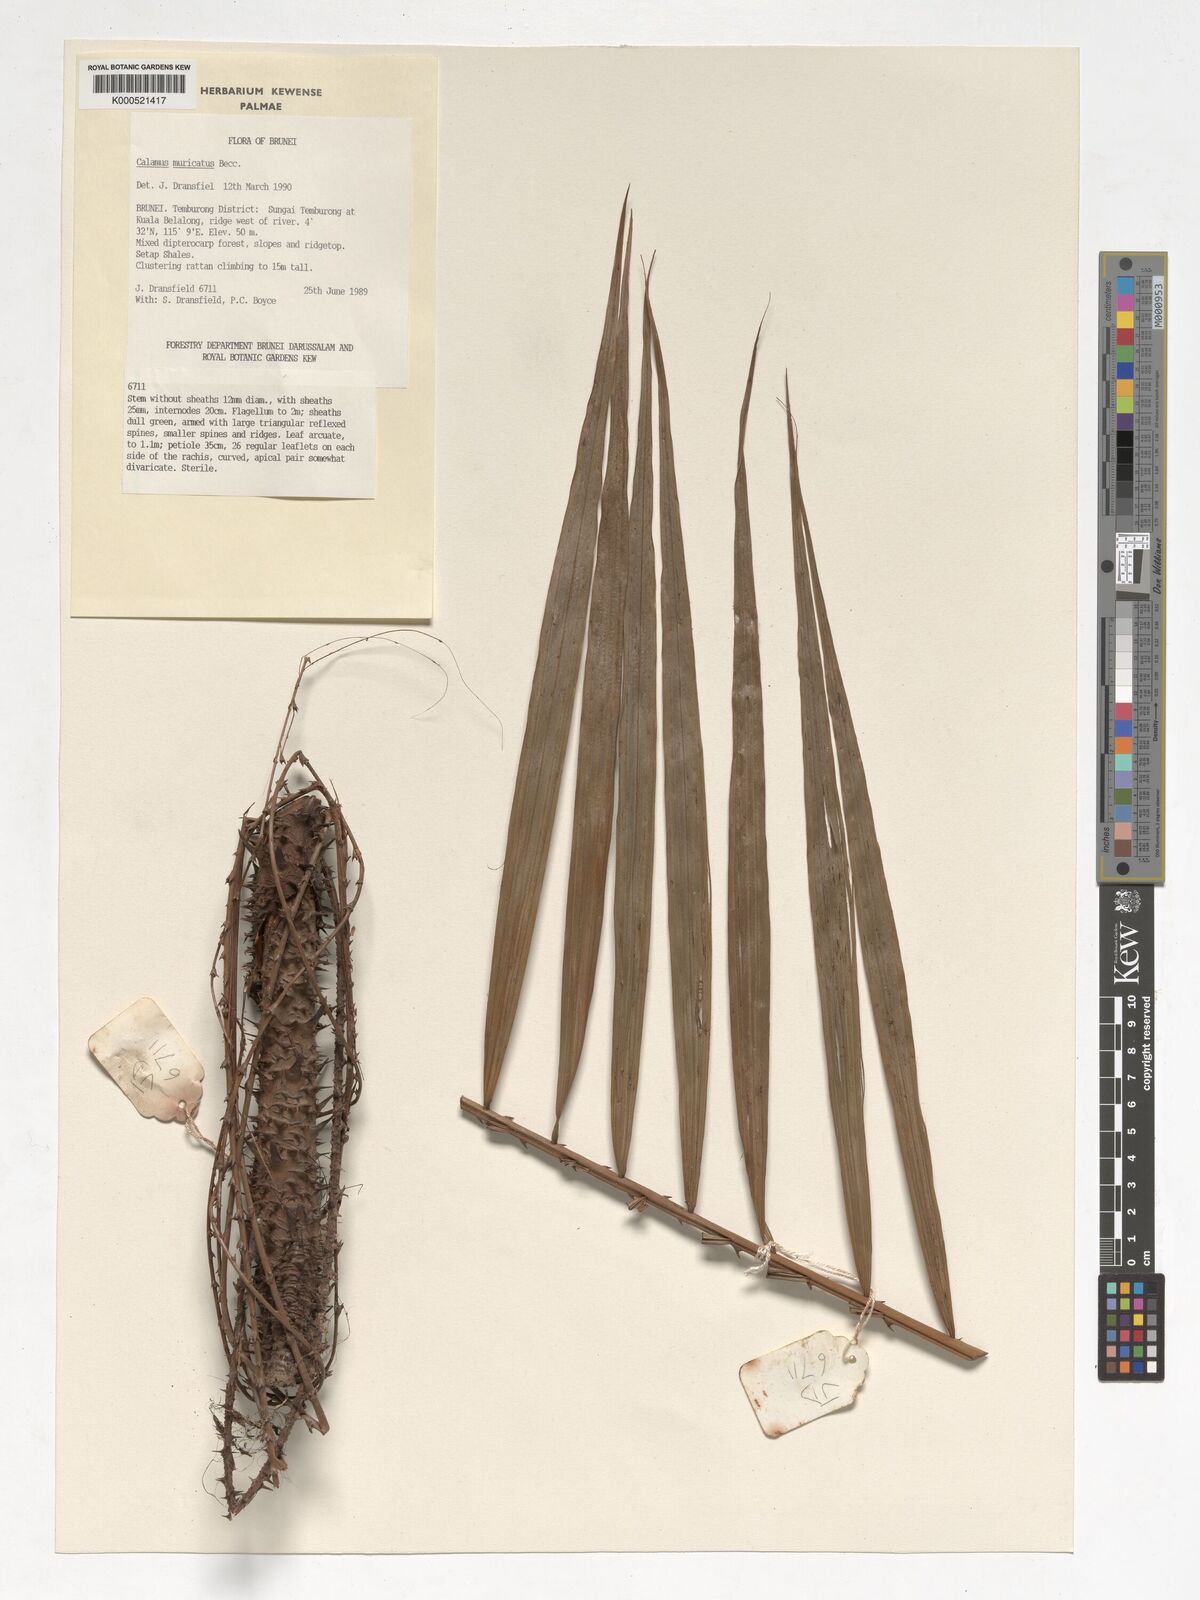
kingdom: Plantae
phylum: Tracheophyta
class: Liliopsida
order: Arecales
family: Arecaceae
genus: Calamus
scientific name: Calamus muricatus
